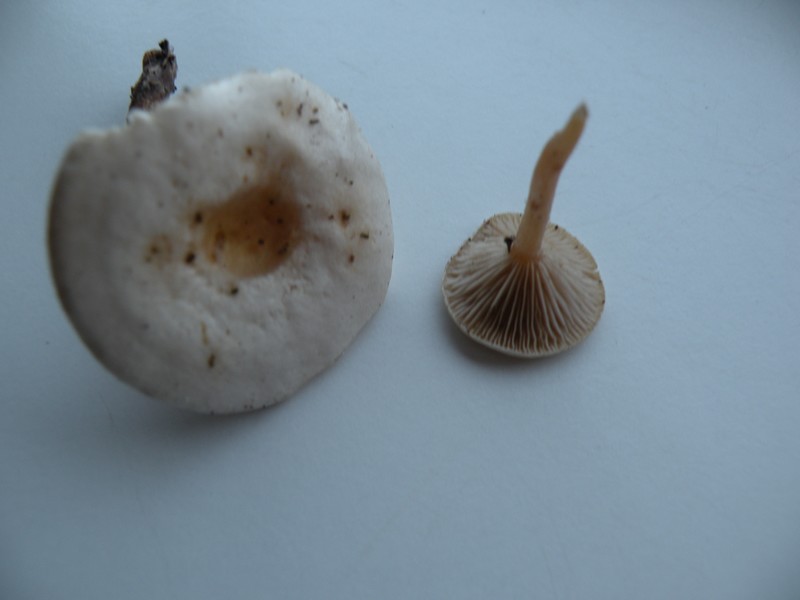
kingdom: Fungi
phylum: Basidiomycota
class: Agaricomycetes
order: Agaricales
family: Tricholomataceae
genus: Ripartites
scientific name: Ripartites tricholoma
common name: almindelig skæghat
